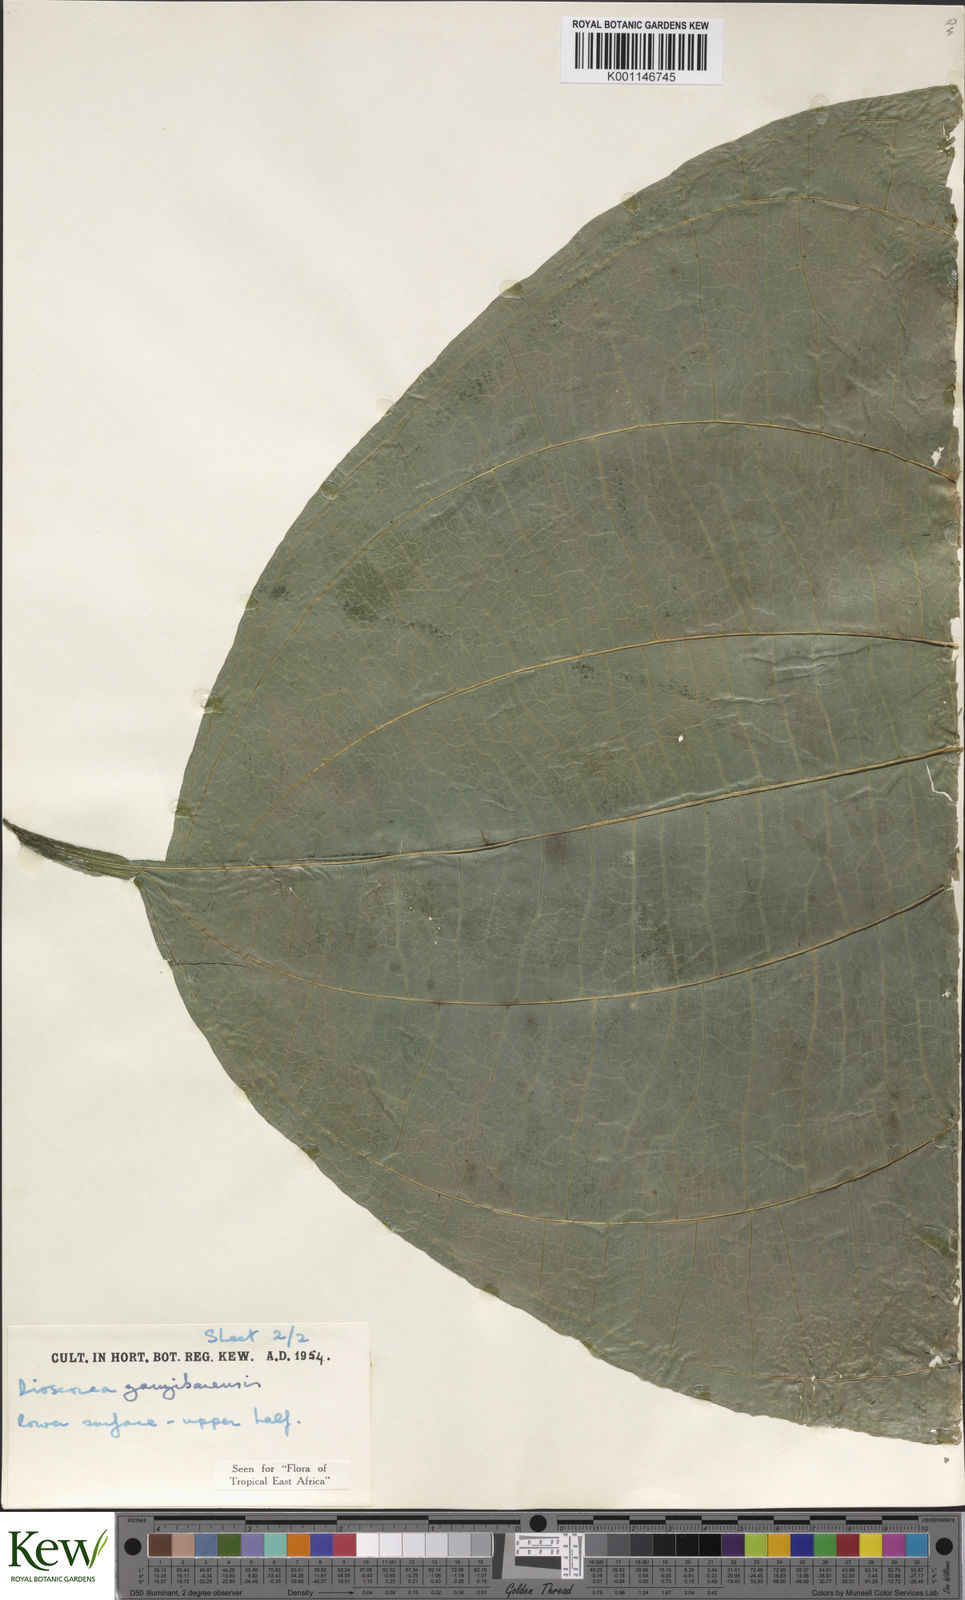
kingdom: Plantae
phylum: Tracheophyta
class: Liliopsida
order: Dioscoreales
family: Dioscoreaceae
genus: Dioscorea
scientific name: Dioscorea sansibarensis
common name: Zanzibar yam
